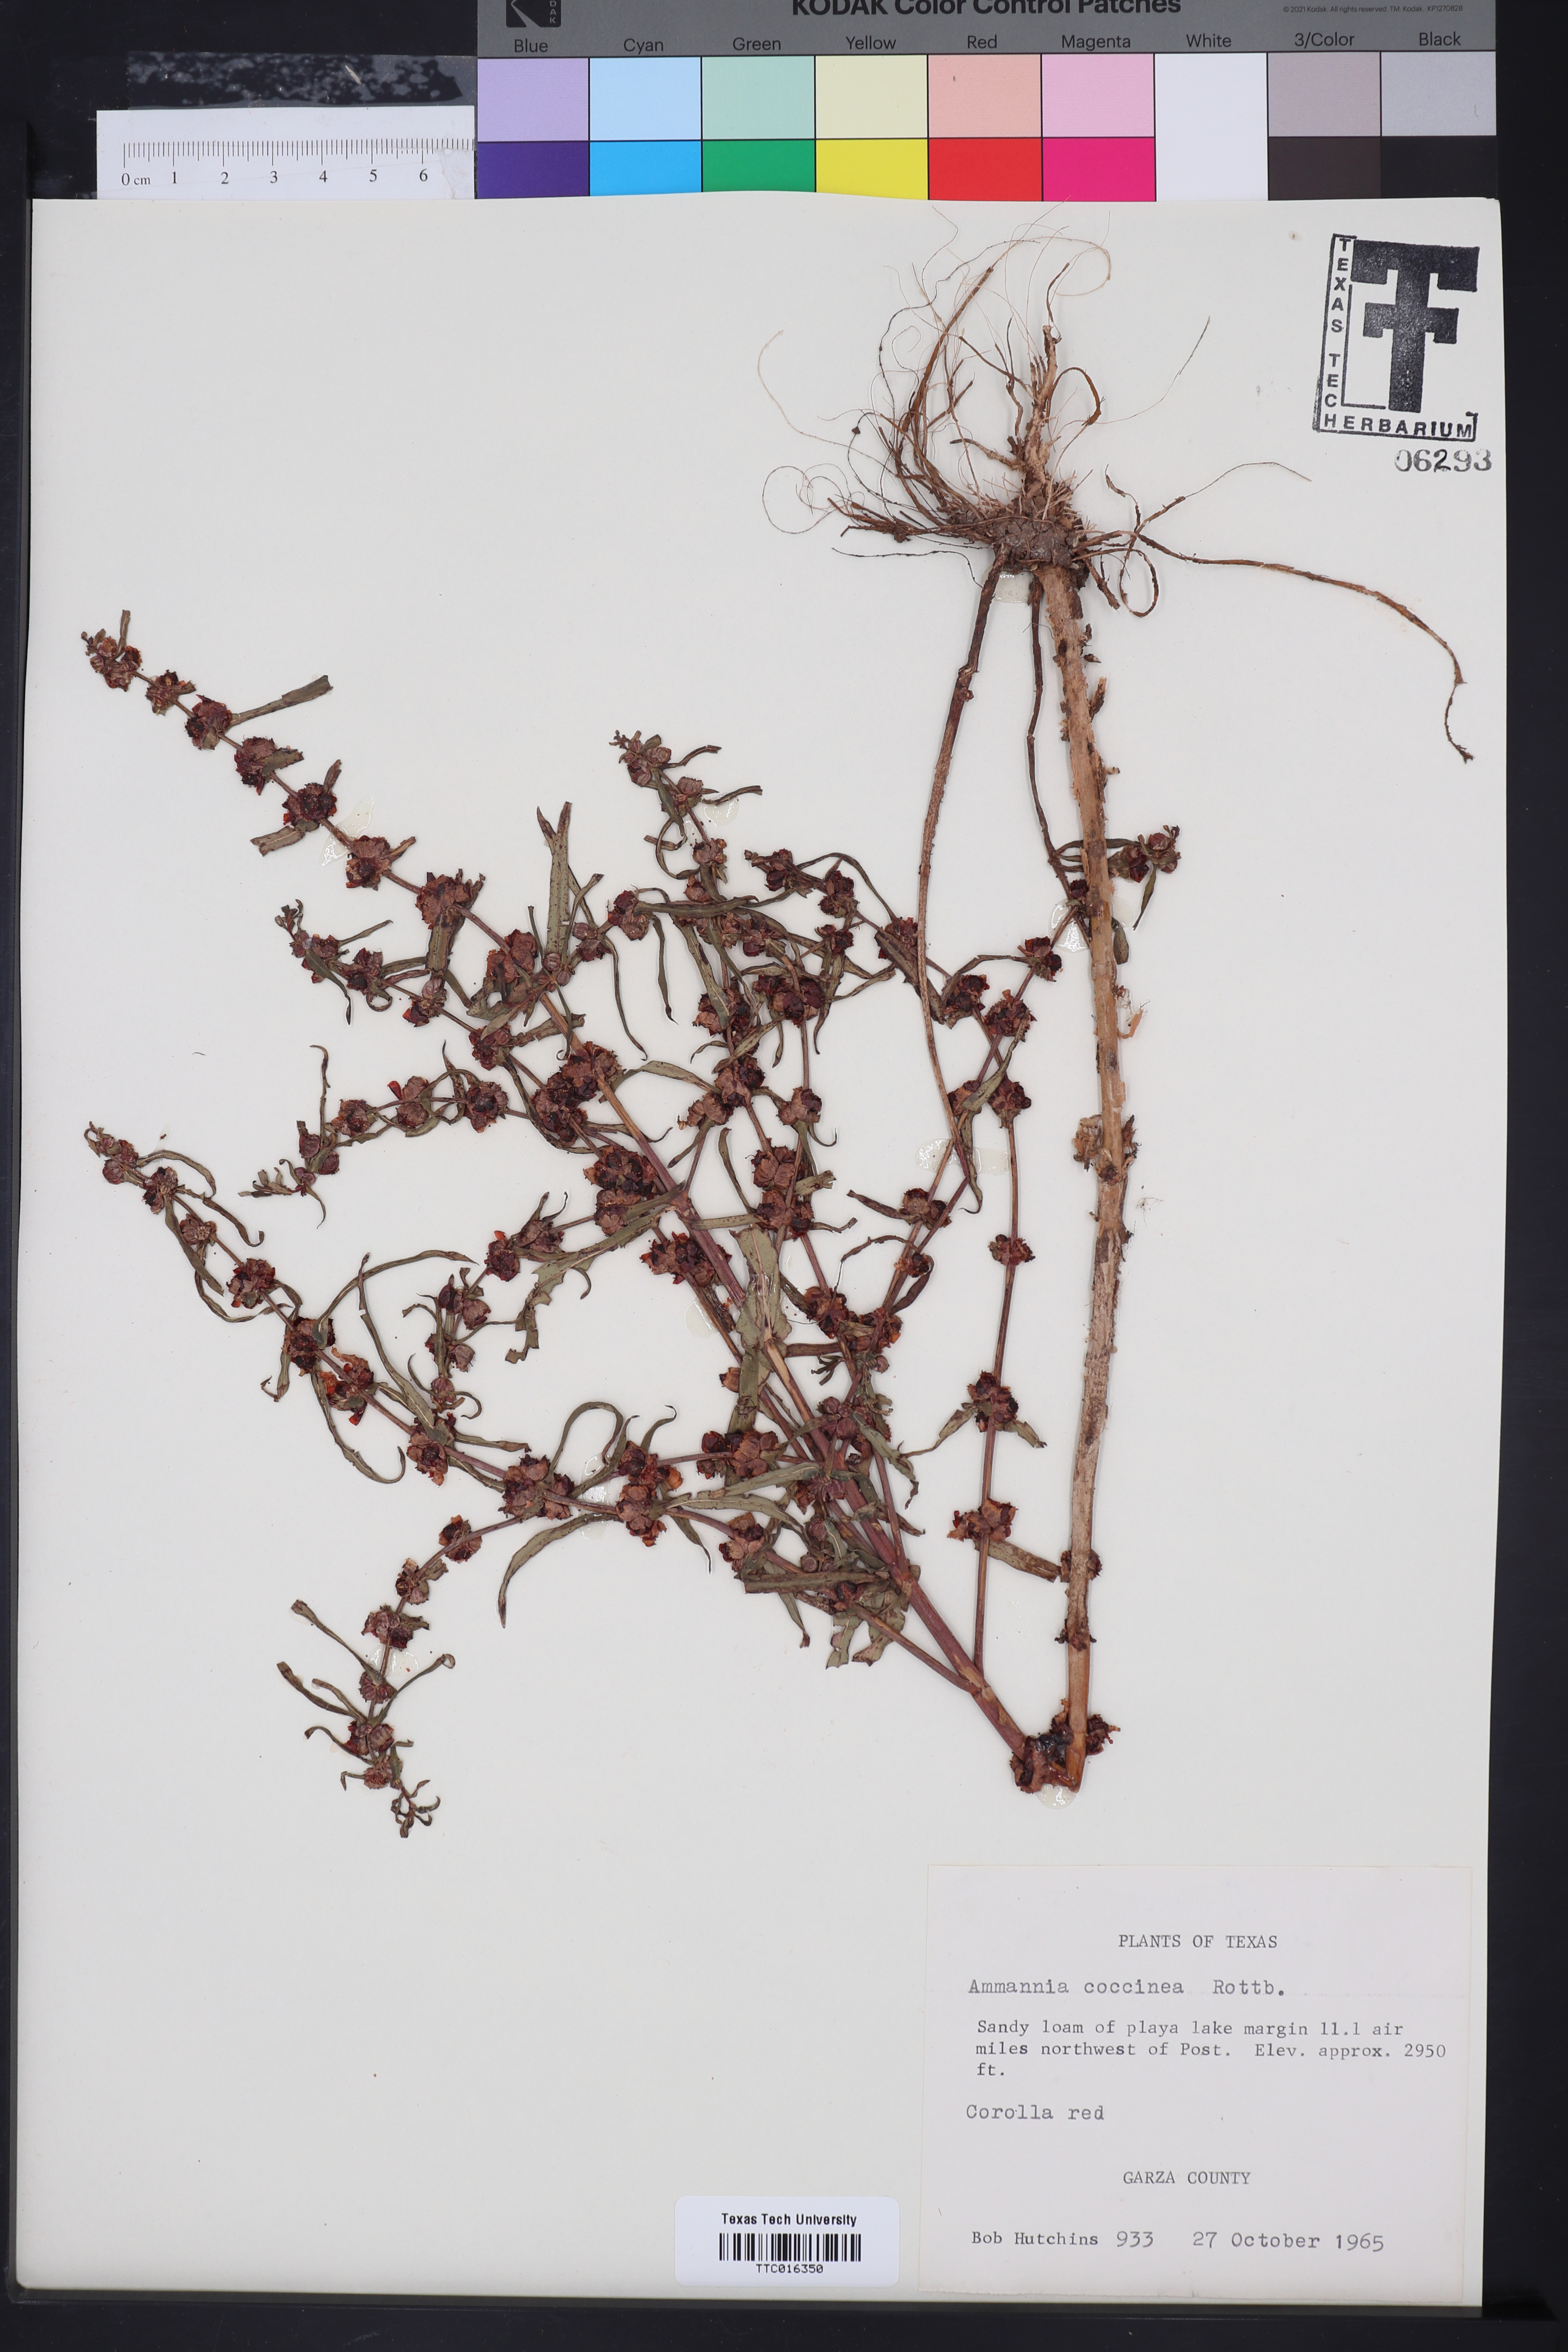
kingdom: Plantae
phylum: Tracheophyta
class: Magnoliopsida
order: Myrtales
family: Lythraceae
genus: Ammannia
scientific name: Ammannia coccinea
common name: Valley redstem
